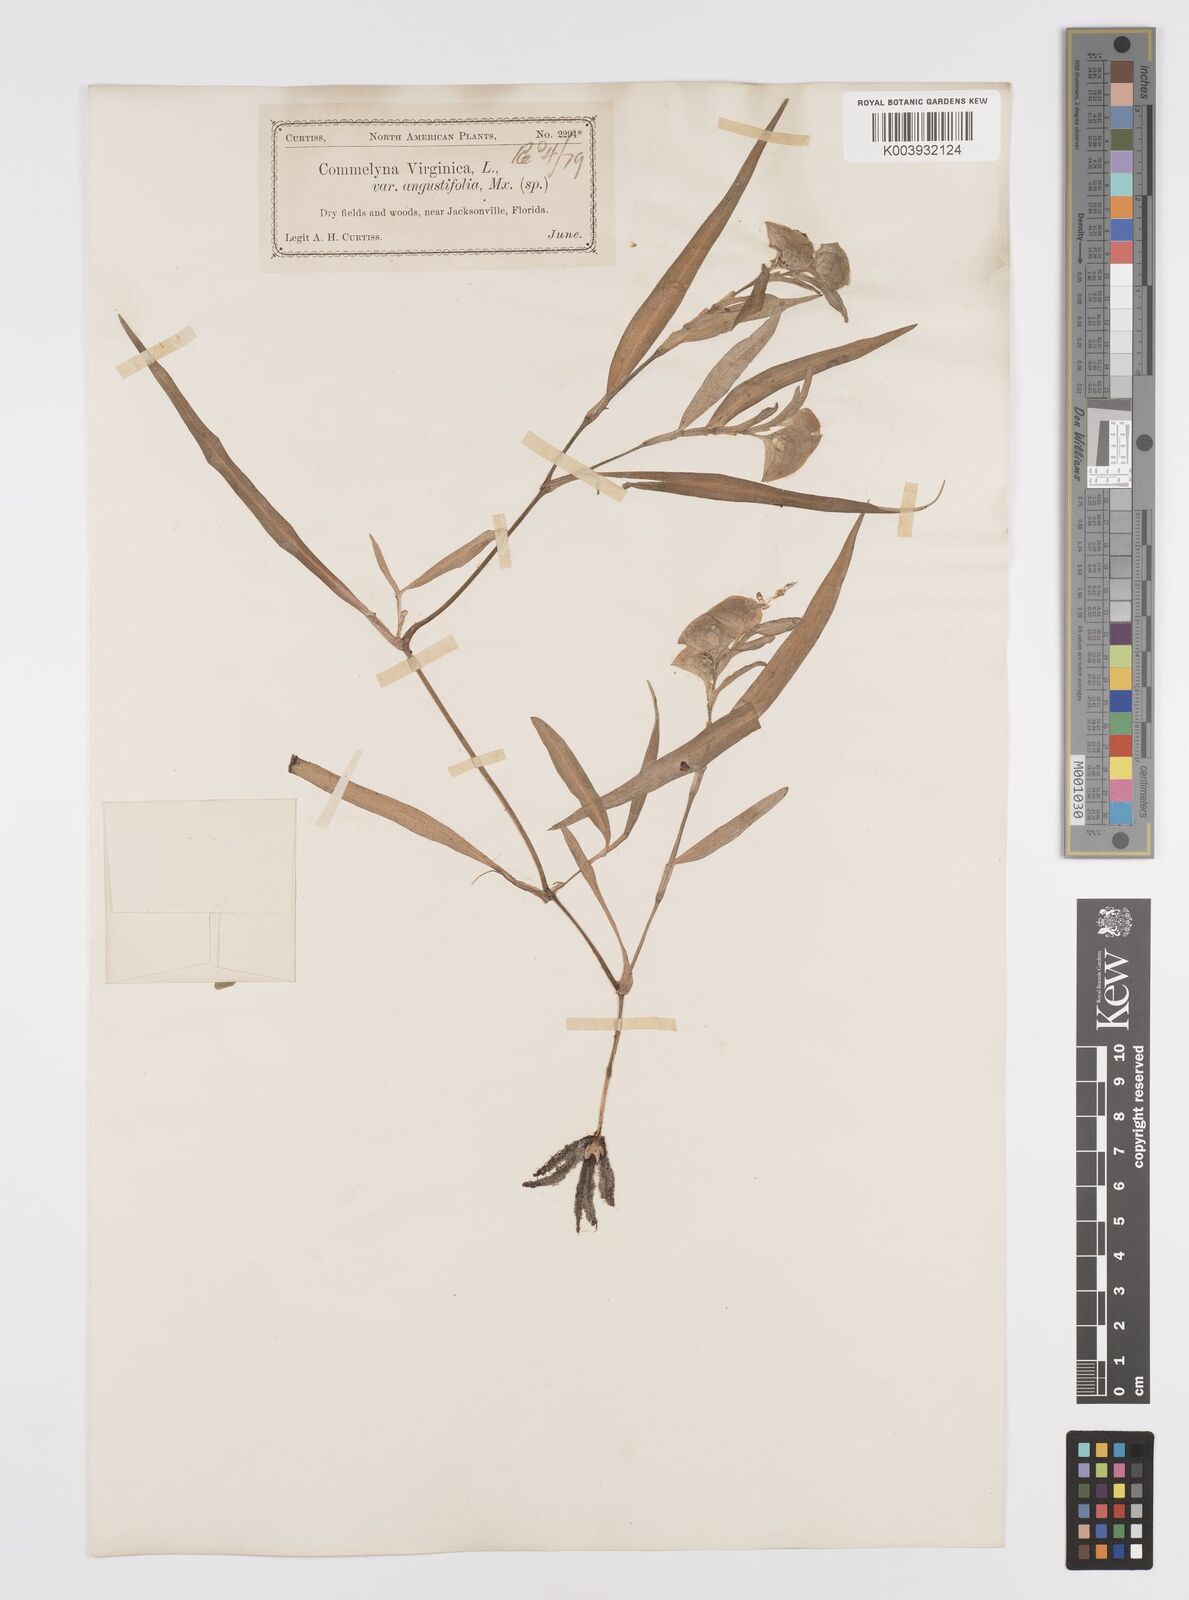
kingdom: Plantae
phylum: Tracheophyta
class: Liliopsida
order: Commelinales
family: Commelinaceae
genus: Commelina
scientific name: Commelina erecta
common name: Blousel blommetjie
